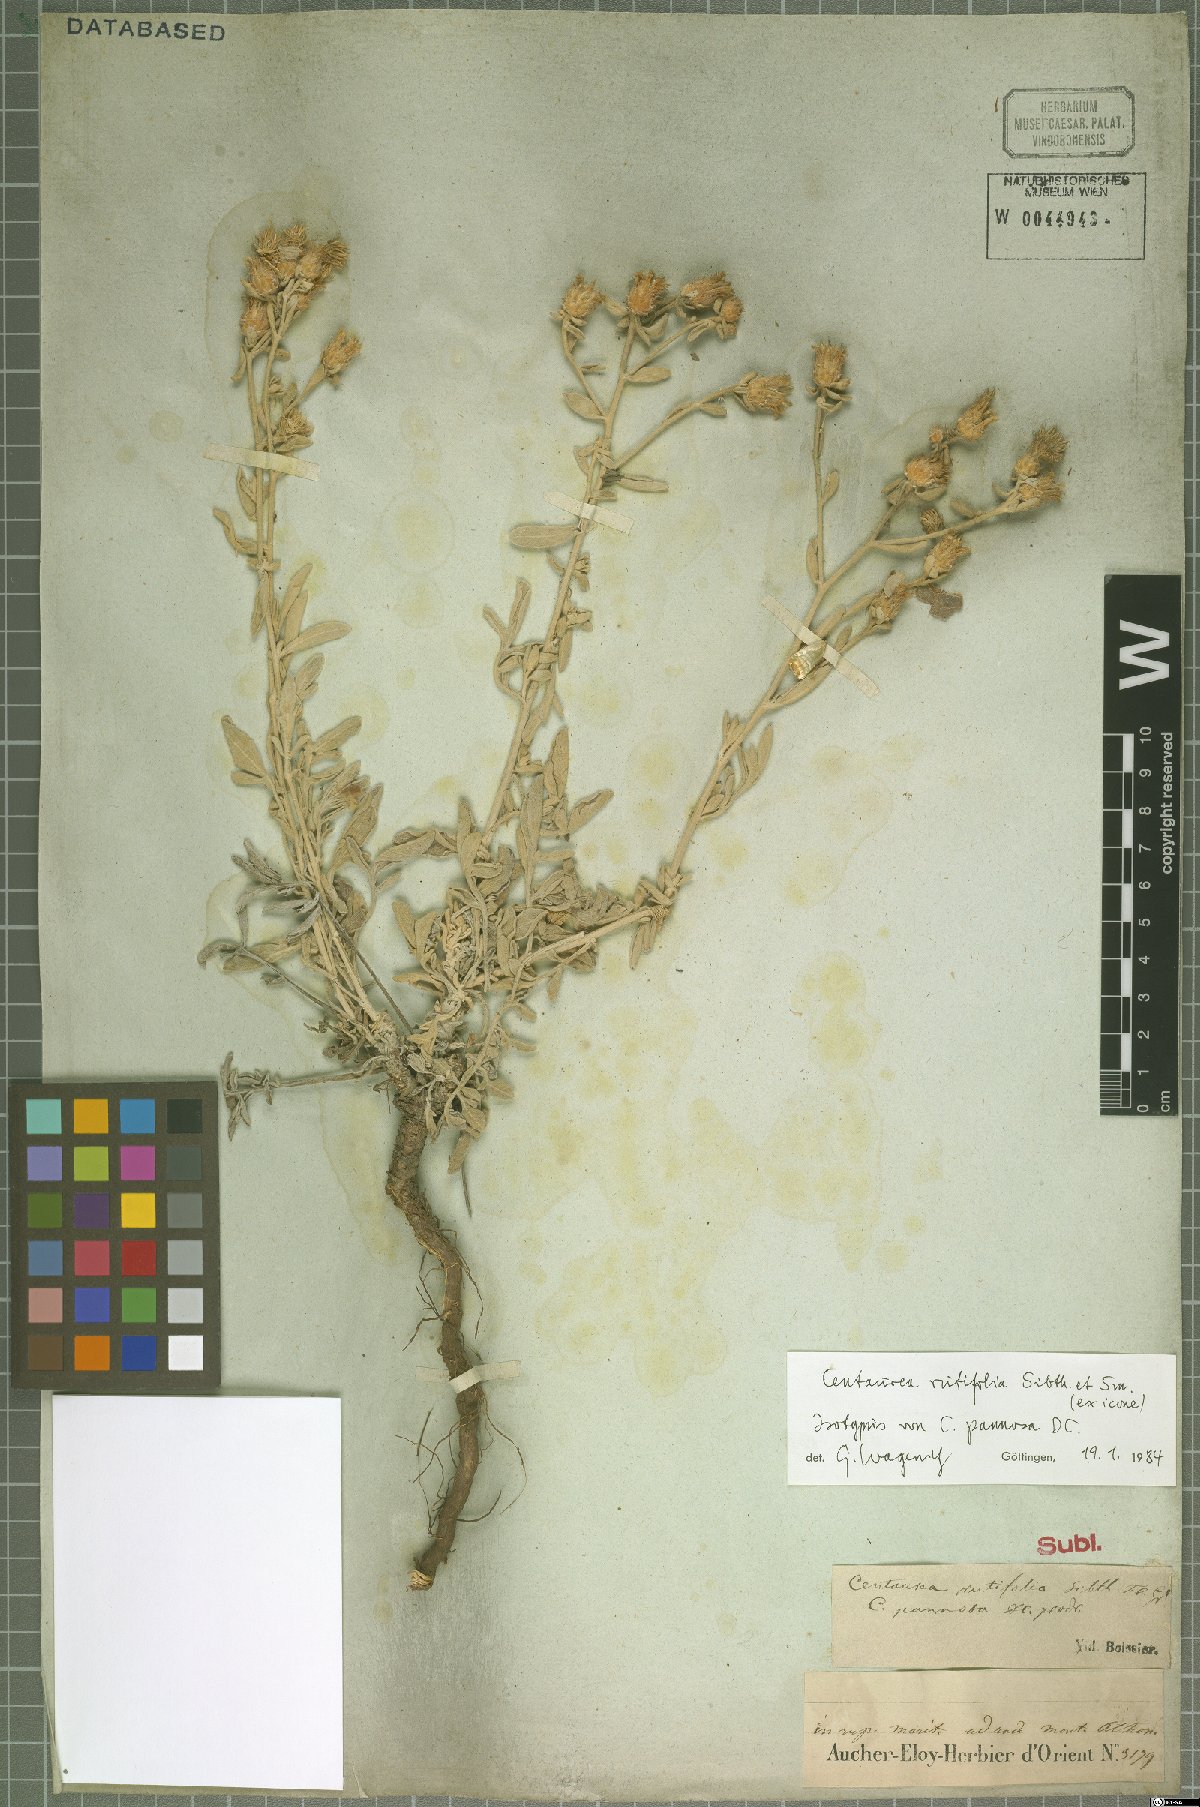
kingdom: Plantae
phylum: Tracheophyta
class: Magnoliopsida
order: Asterales
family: Asteraceae
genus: Centaurea
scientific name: Centaurea rutifolia
